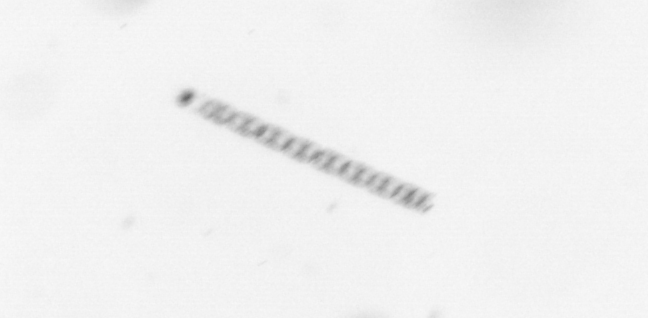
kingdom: Chromista
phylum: Ochrophyta
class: Bacillariophyceae
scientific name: Bacillariophyceae
